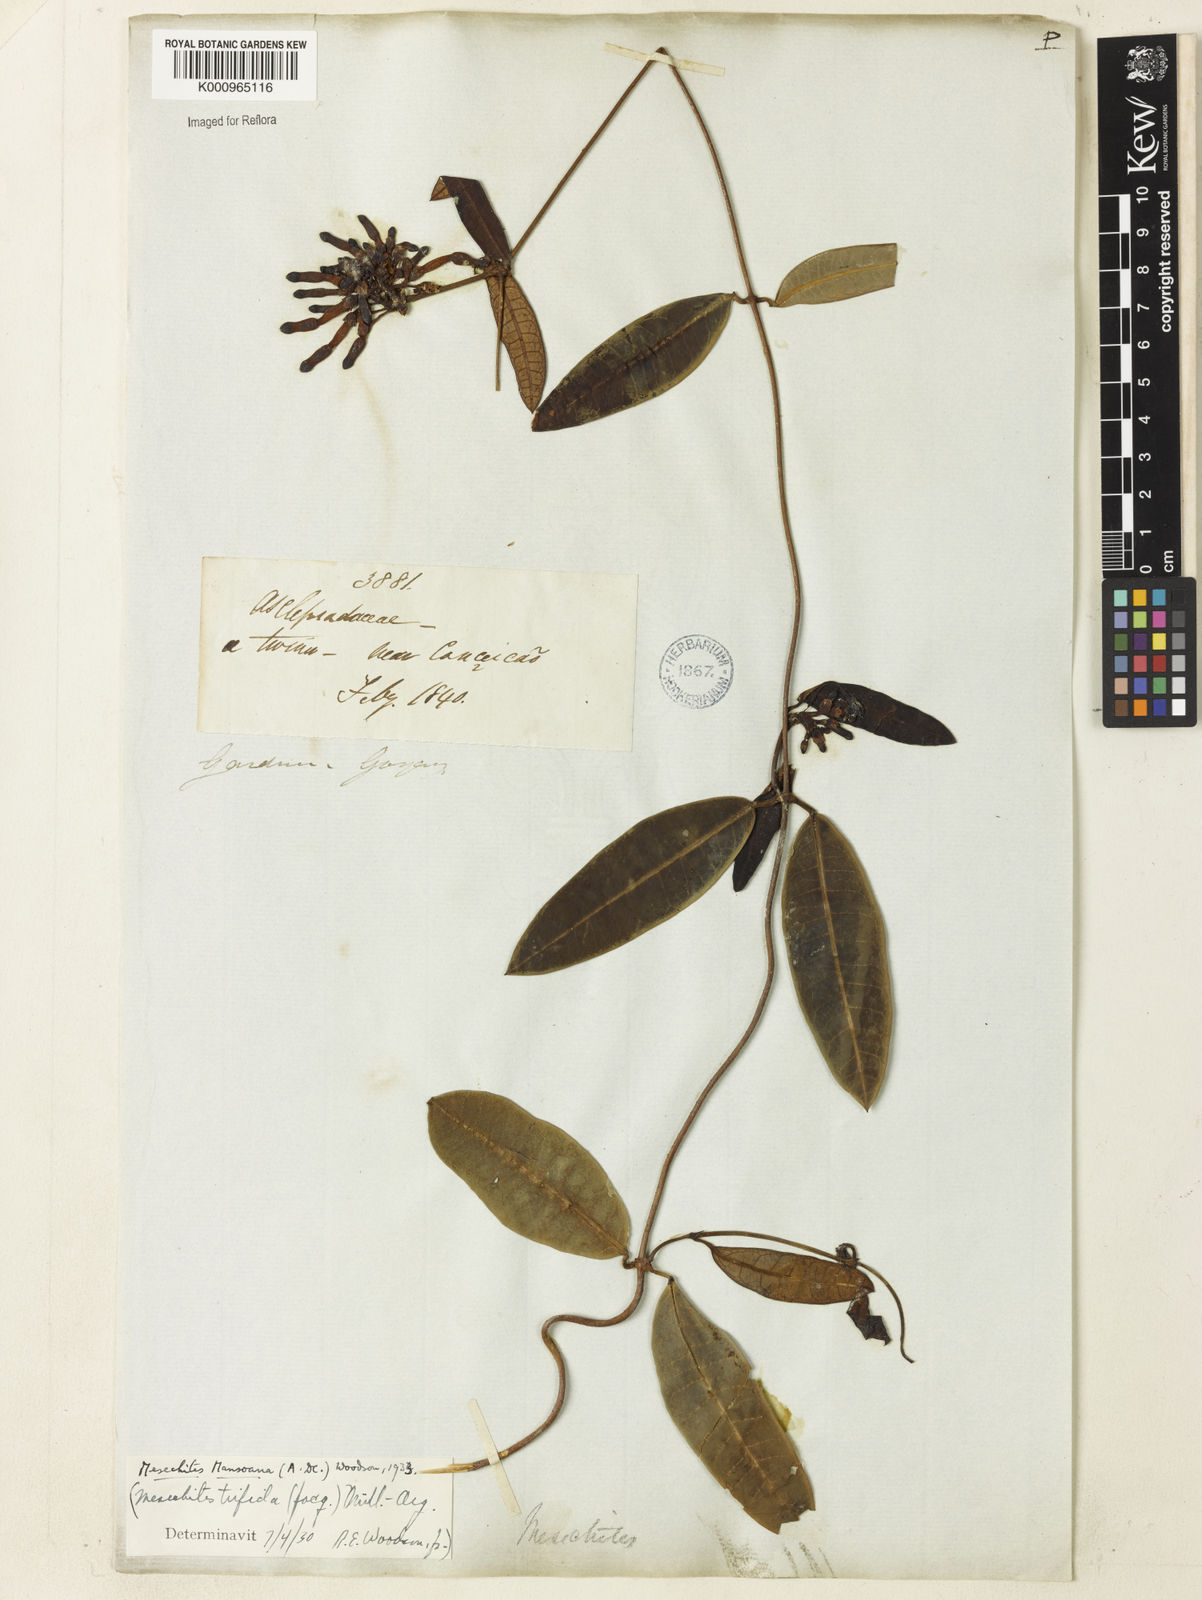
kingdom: Plantae
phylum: Tracheophyta
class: Magnoliopsida
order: Gentianales
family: Apocynaceae
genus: Mesechites
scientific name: Mesechites
